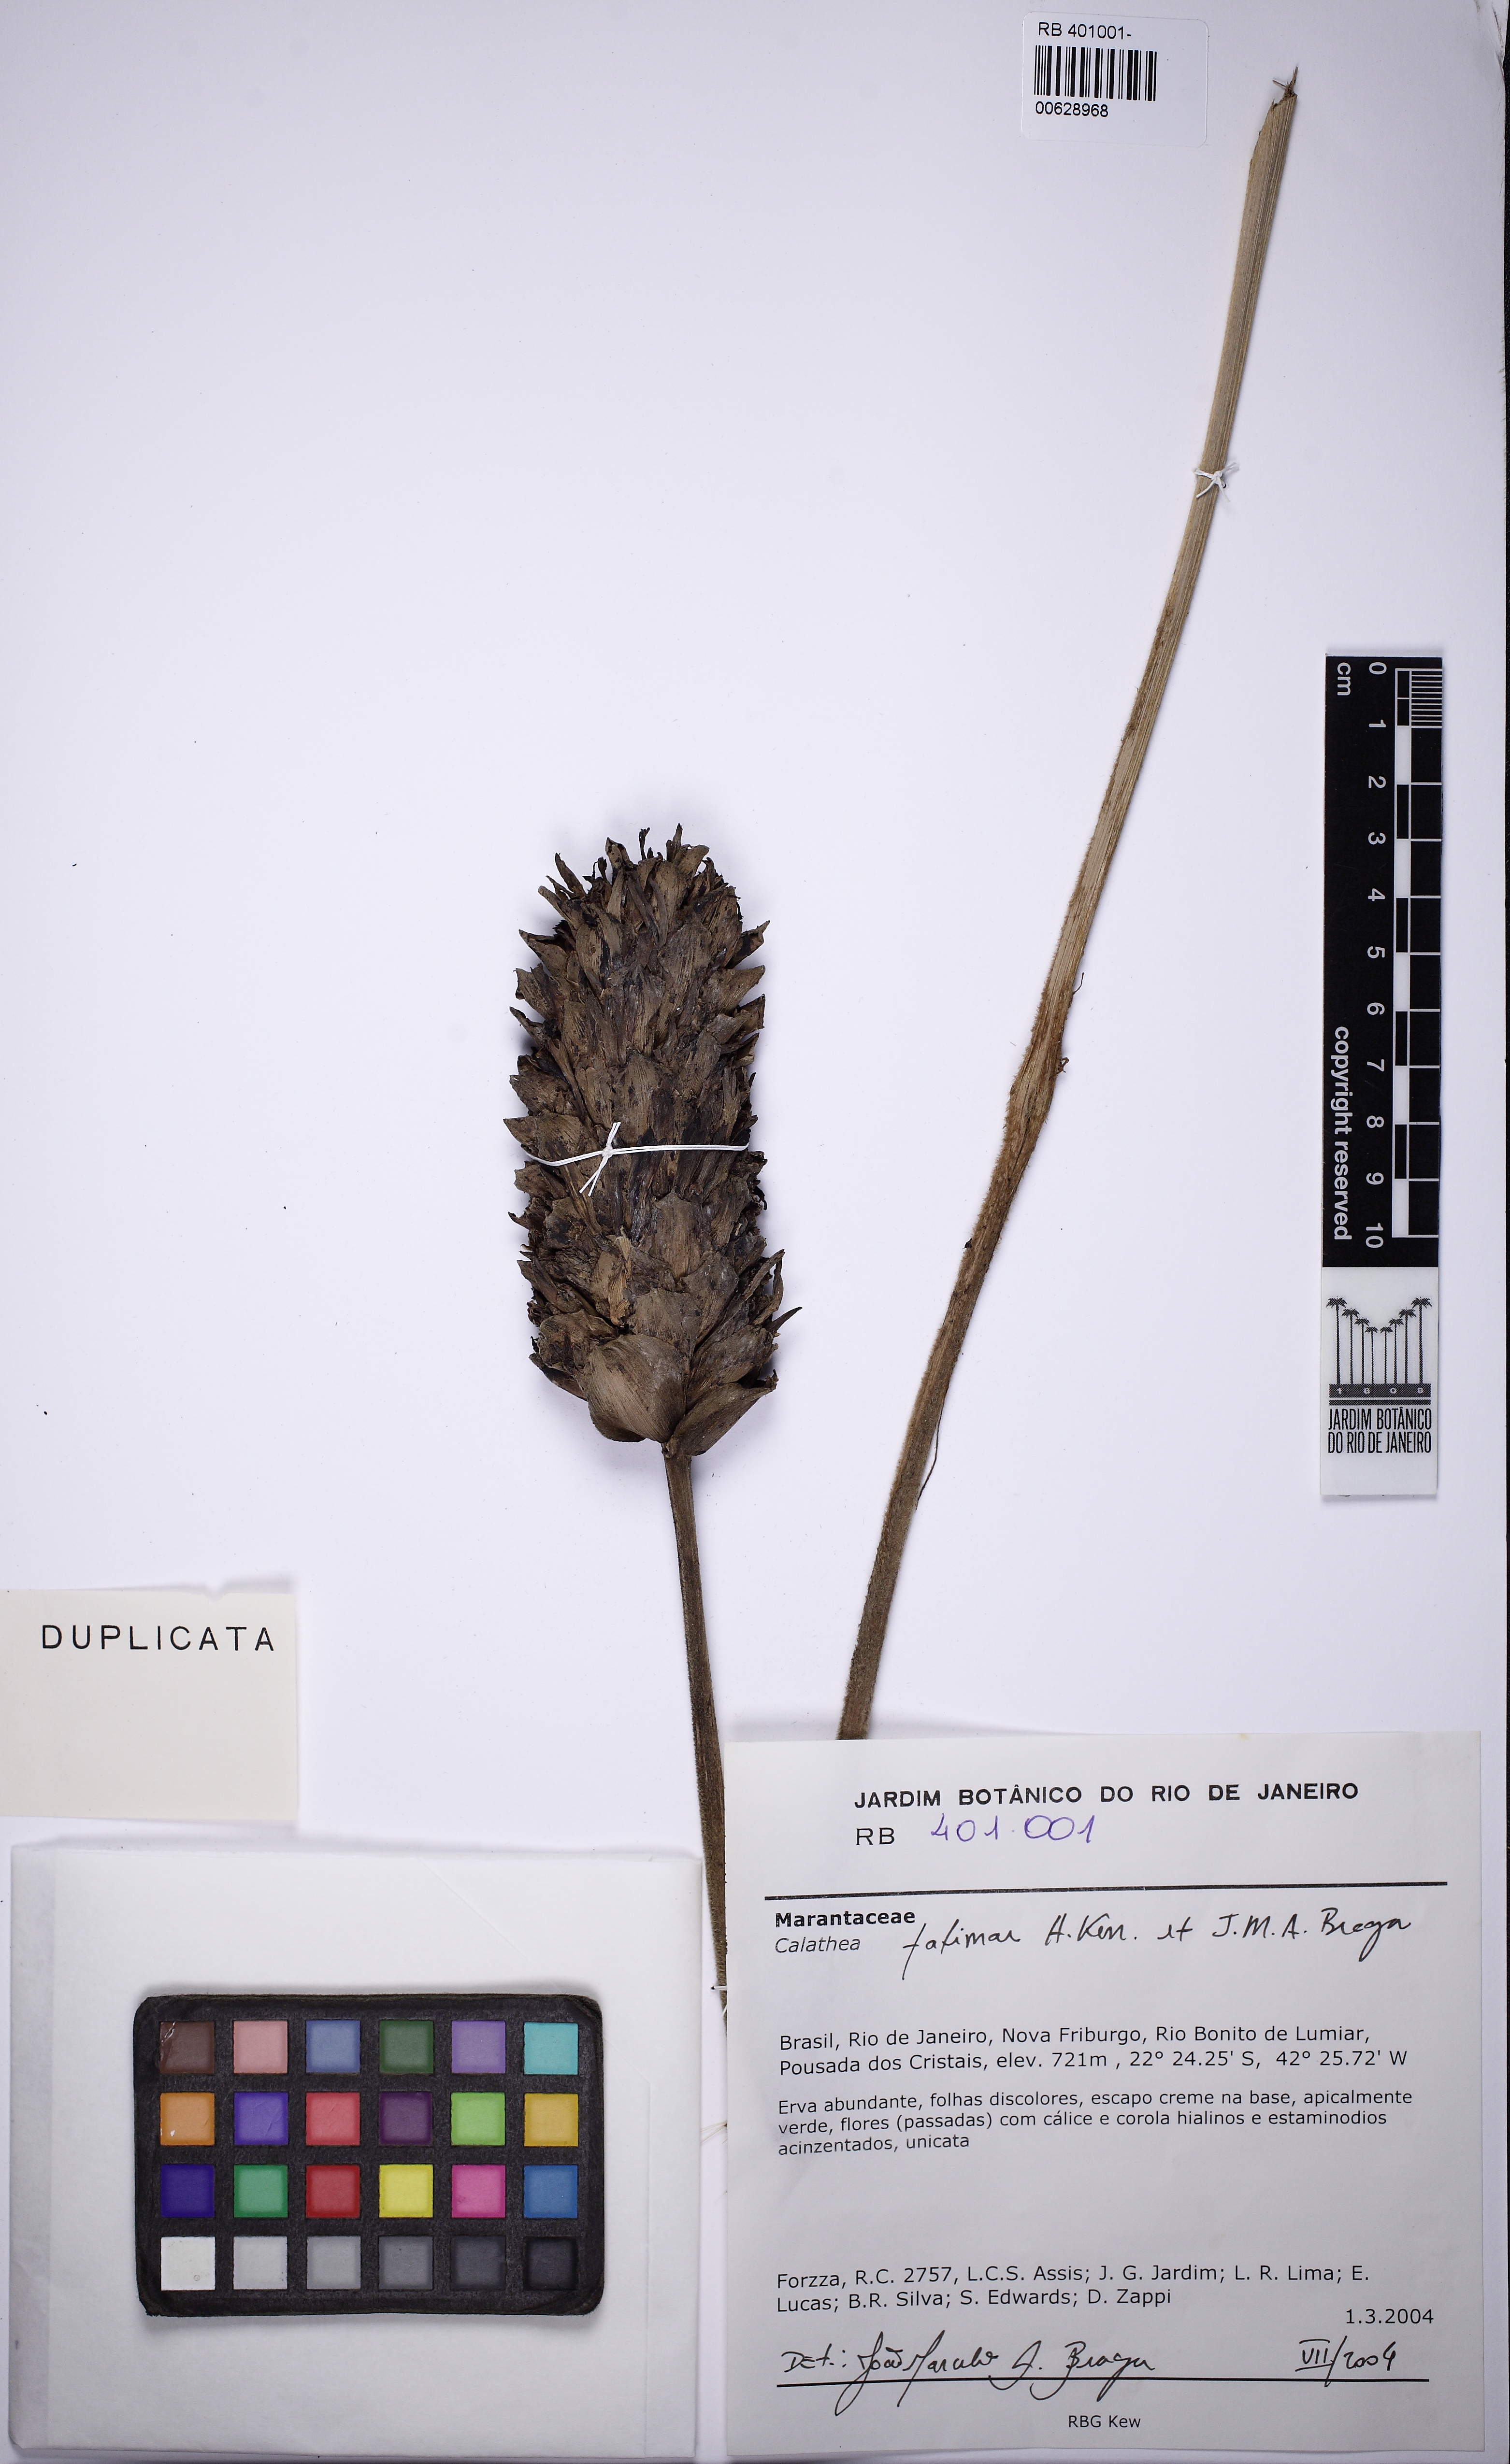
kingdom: Plantae
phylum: Tracheophyta
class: Liliopsida
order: Zingiberales
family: Marantaceae
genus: Goeppertia
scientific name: Goeppertia fatimae
